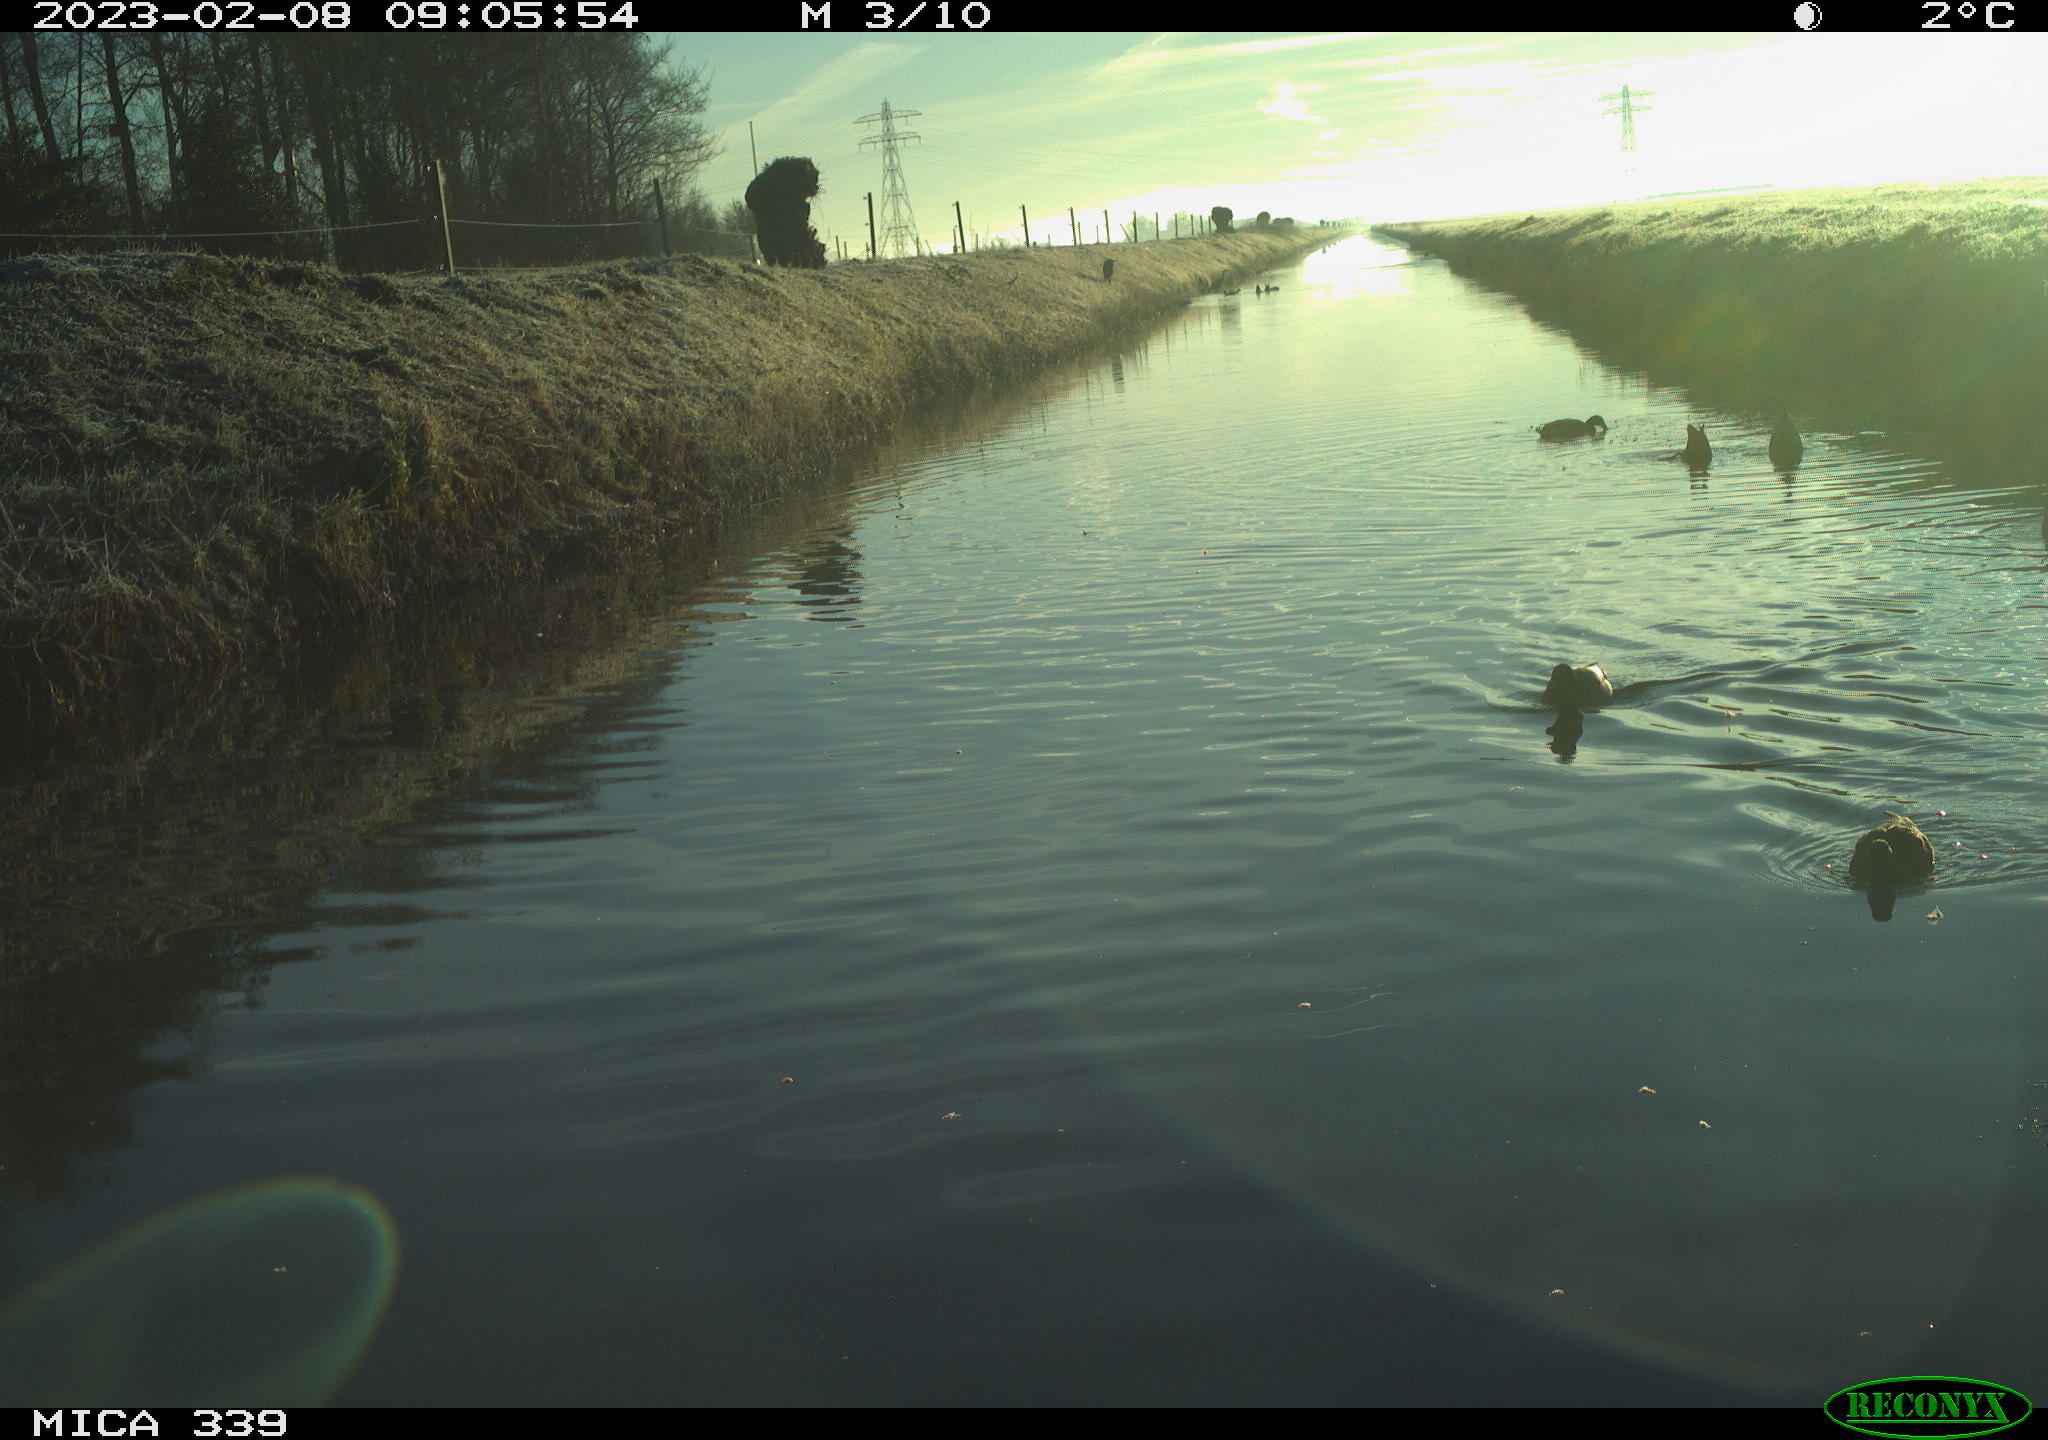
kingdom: Animalia
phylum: Chordata
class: Aves
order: Anseriformes
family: Anatidae
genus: Anas
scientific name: Anas
